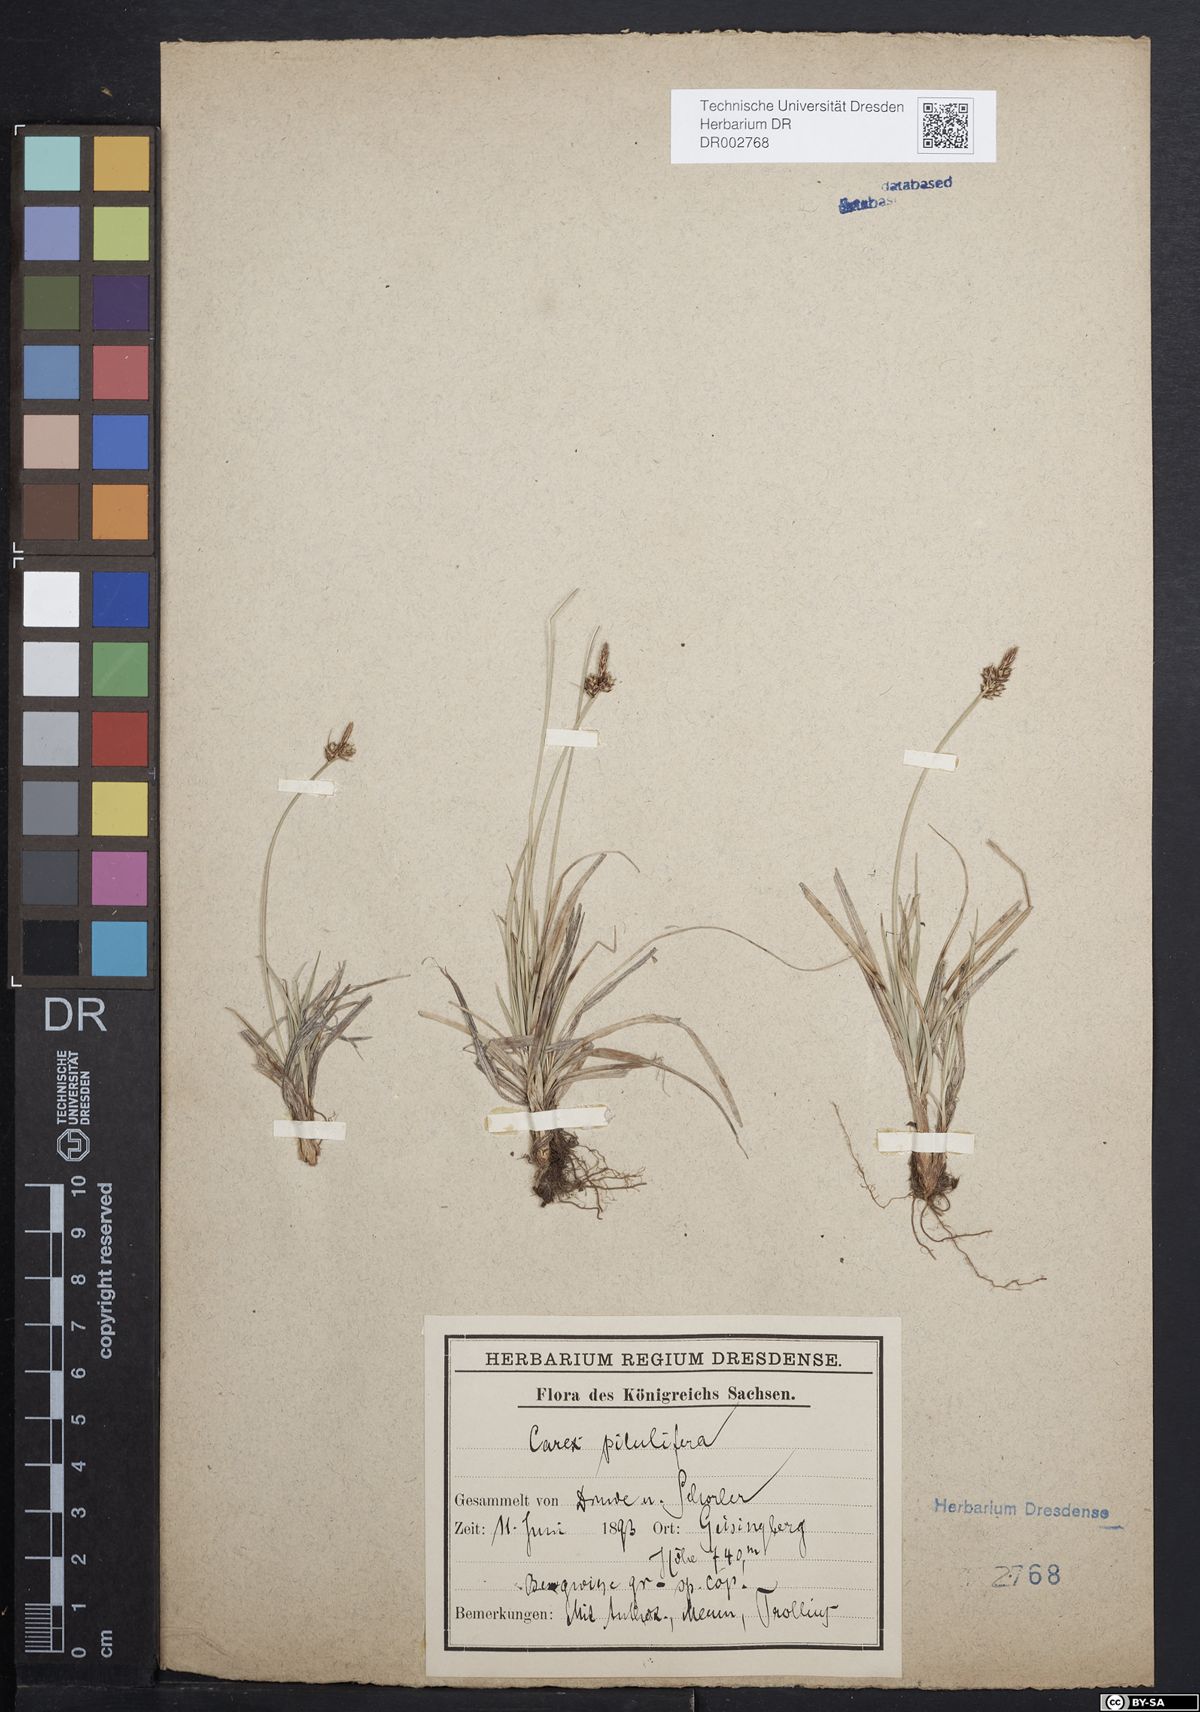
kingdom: Plantae
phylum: Tracheophyta
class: Liliopsida
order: Poales
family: Cyperaceae
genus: Carex
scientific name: Carex caryophyllea
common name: Spring sedge
